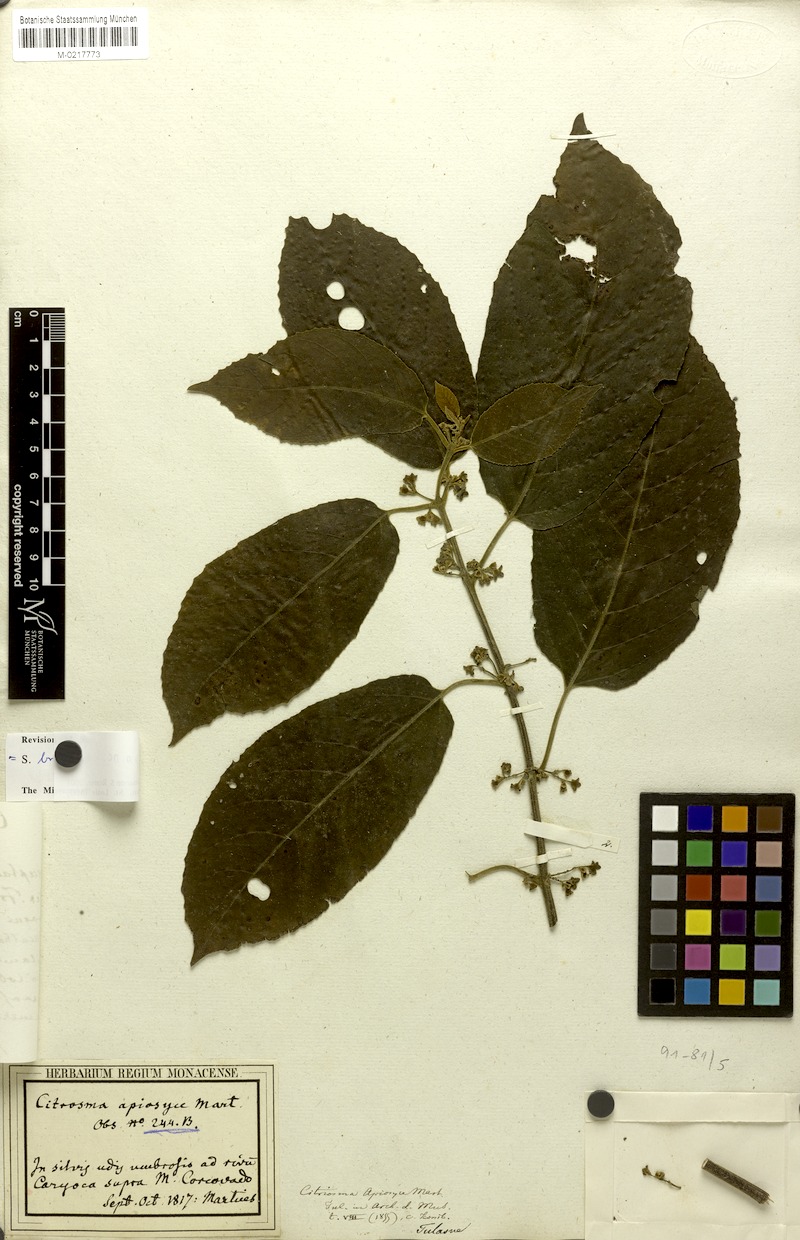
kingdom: Plantae
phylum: Tracheophyta
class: Magnoliopsida
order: Laurales
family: Siparunaceae
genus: Siparuna
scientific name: Siparuna brasiliensis
